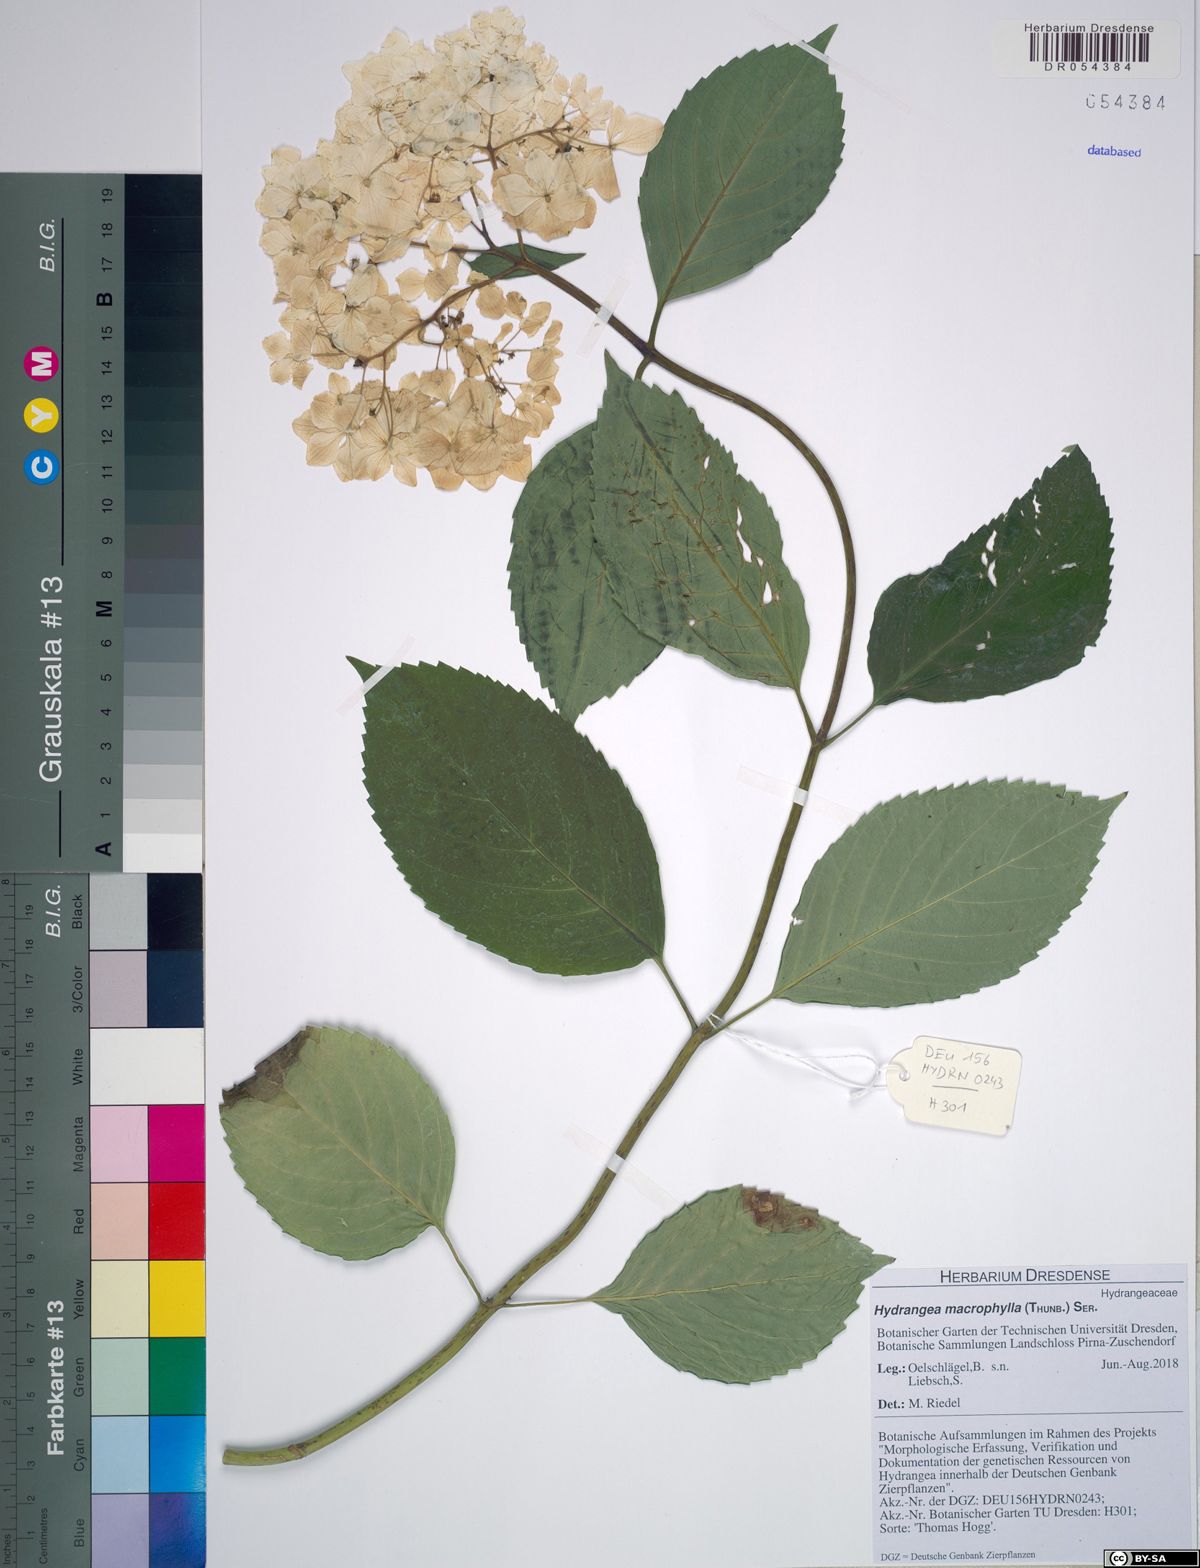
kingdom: Plantae
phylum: Tracheophyta
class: Magnoliopsida
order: Cornales
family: Hydrangeaceae
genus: Hydrangea
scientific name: Hydrangea macrophylla
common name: Hydrangea
